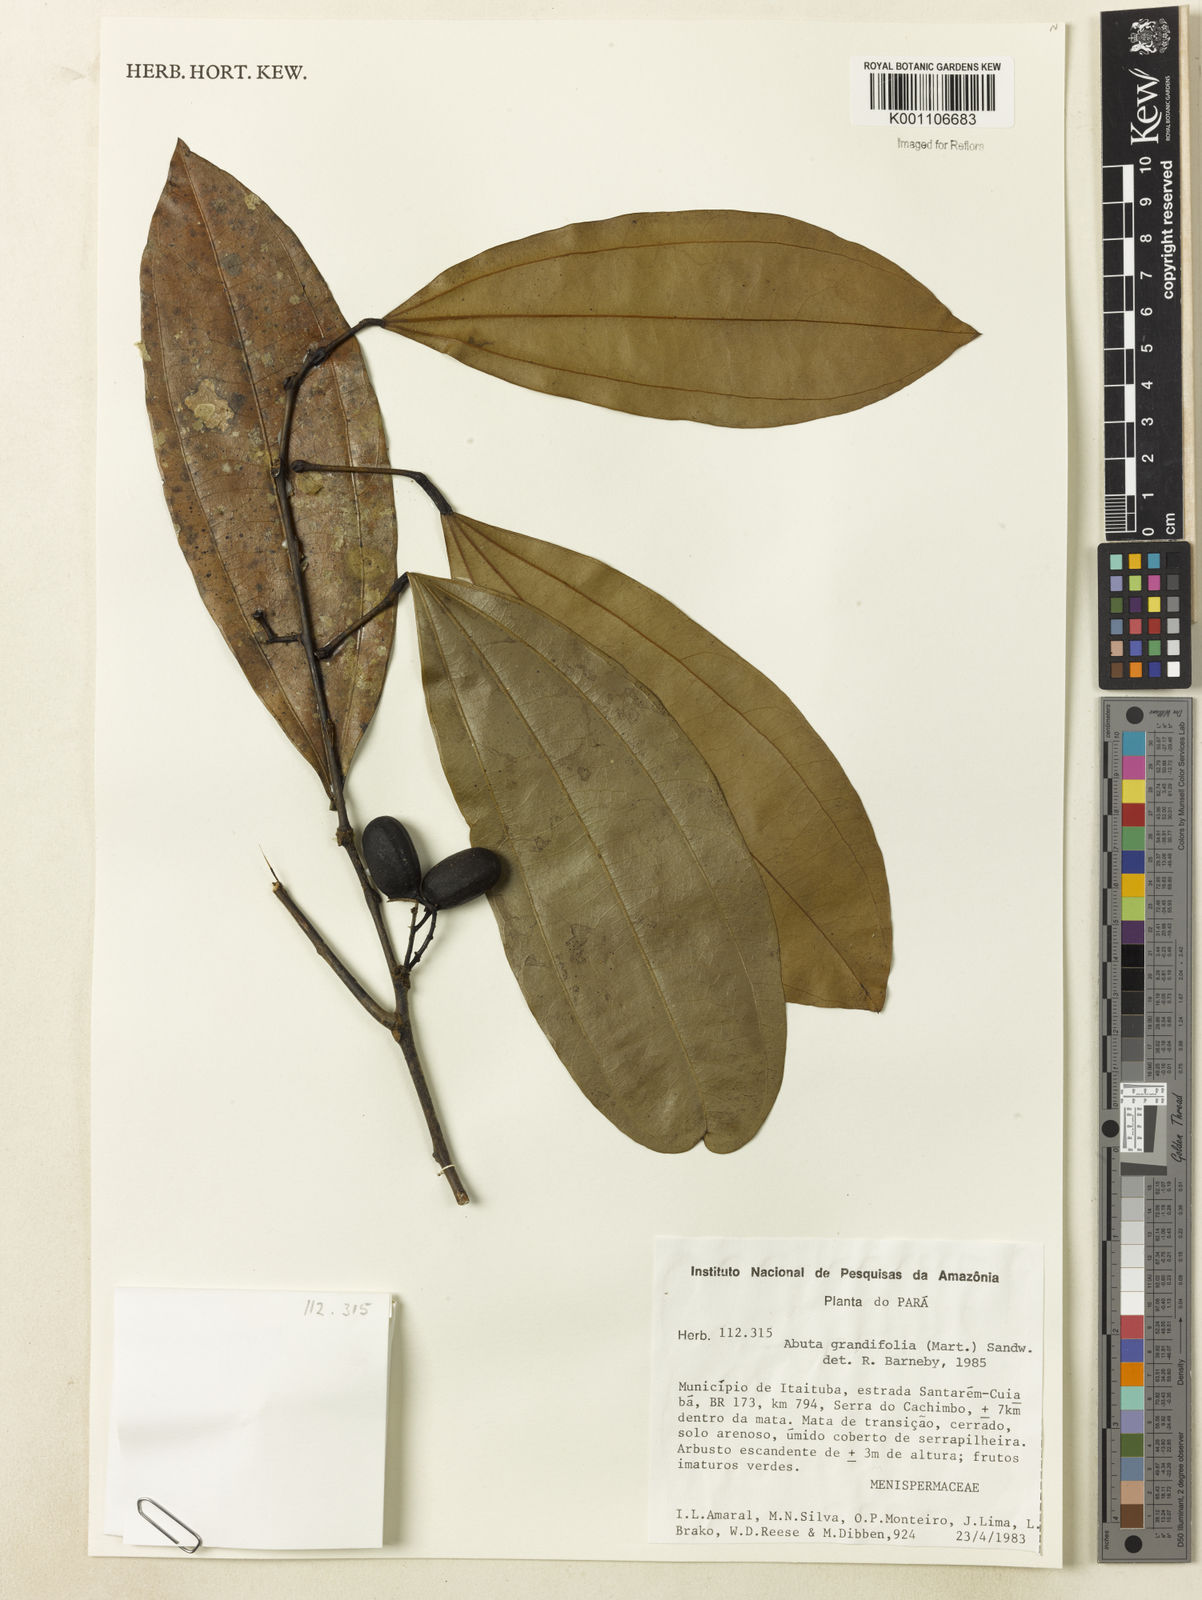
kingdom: Plantae
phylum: Tracheophyta
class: Magnoliopsida
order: Ranunculales
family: Menispermaceae
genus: Abuta
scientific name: Abuta grandifolia
